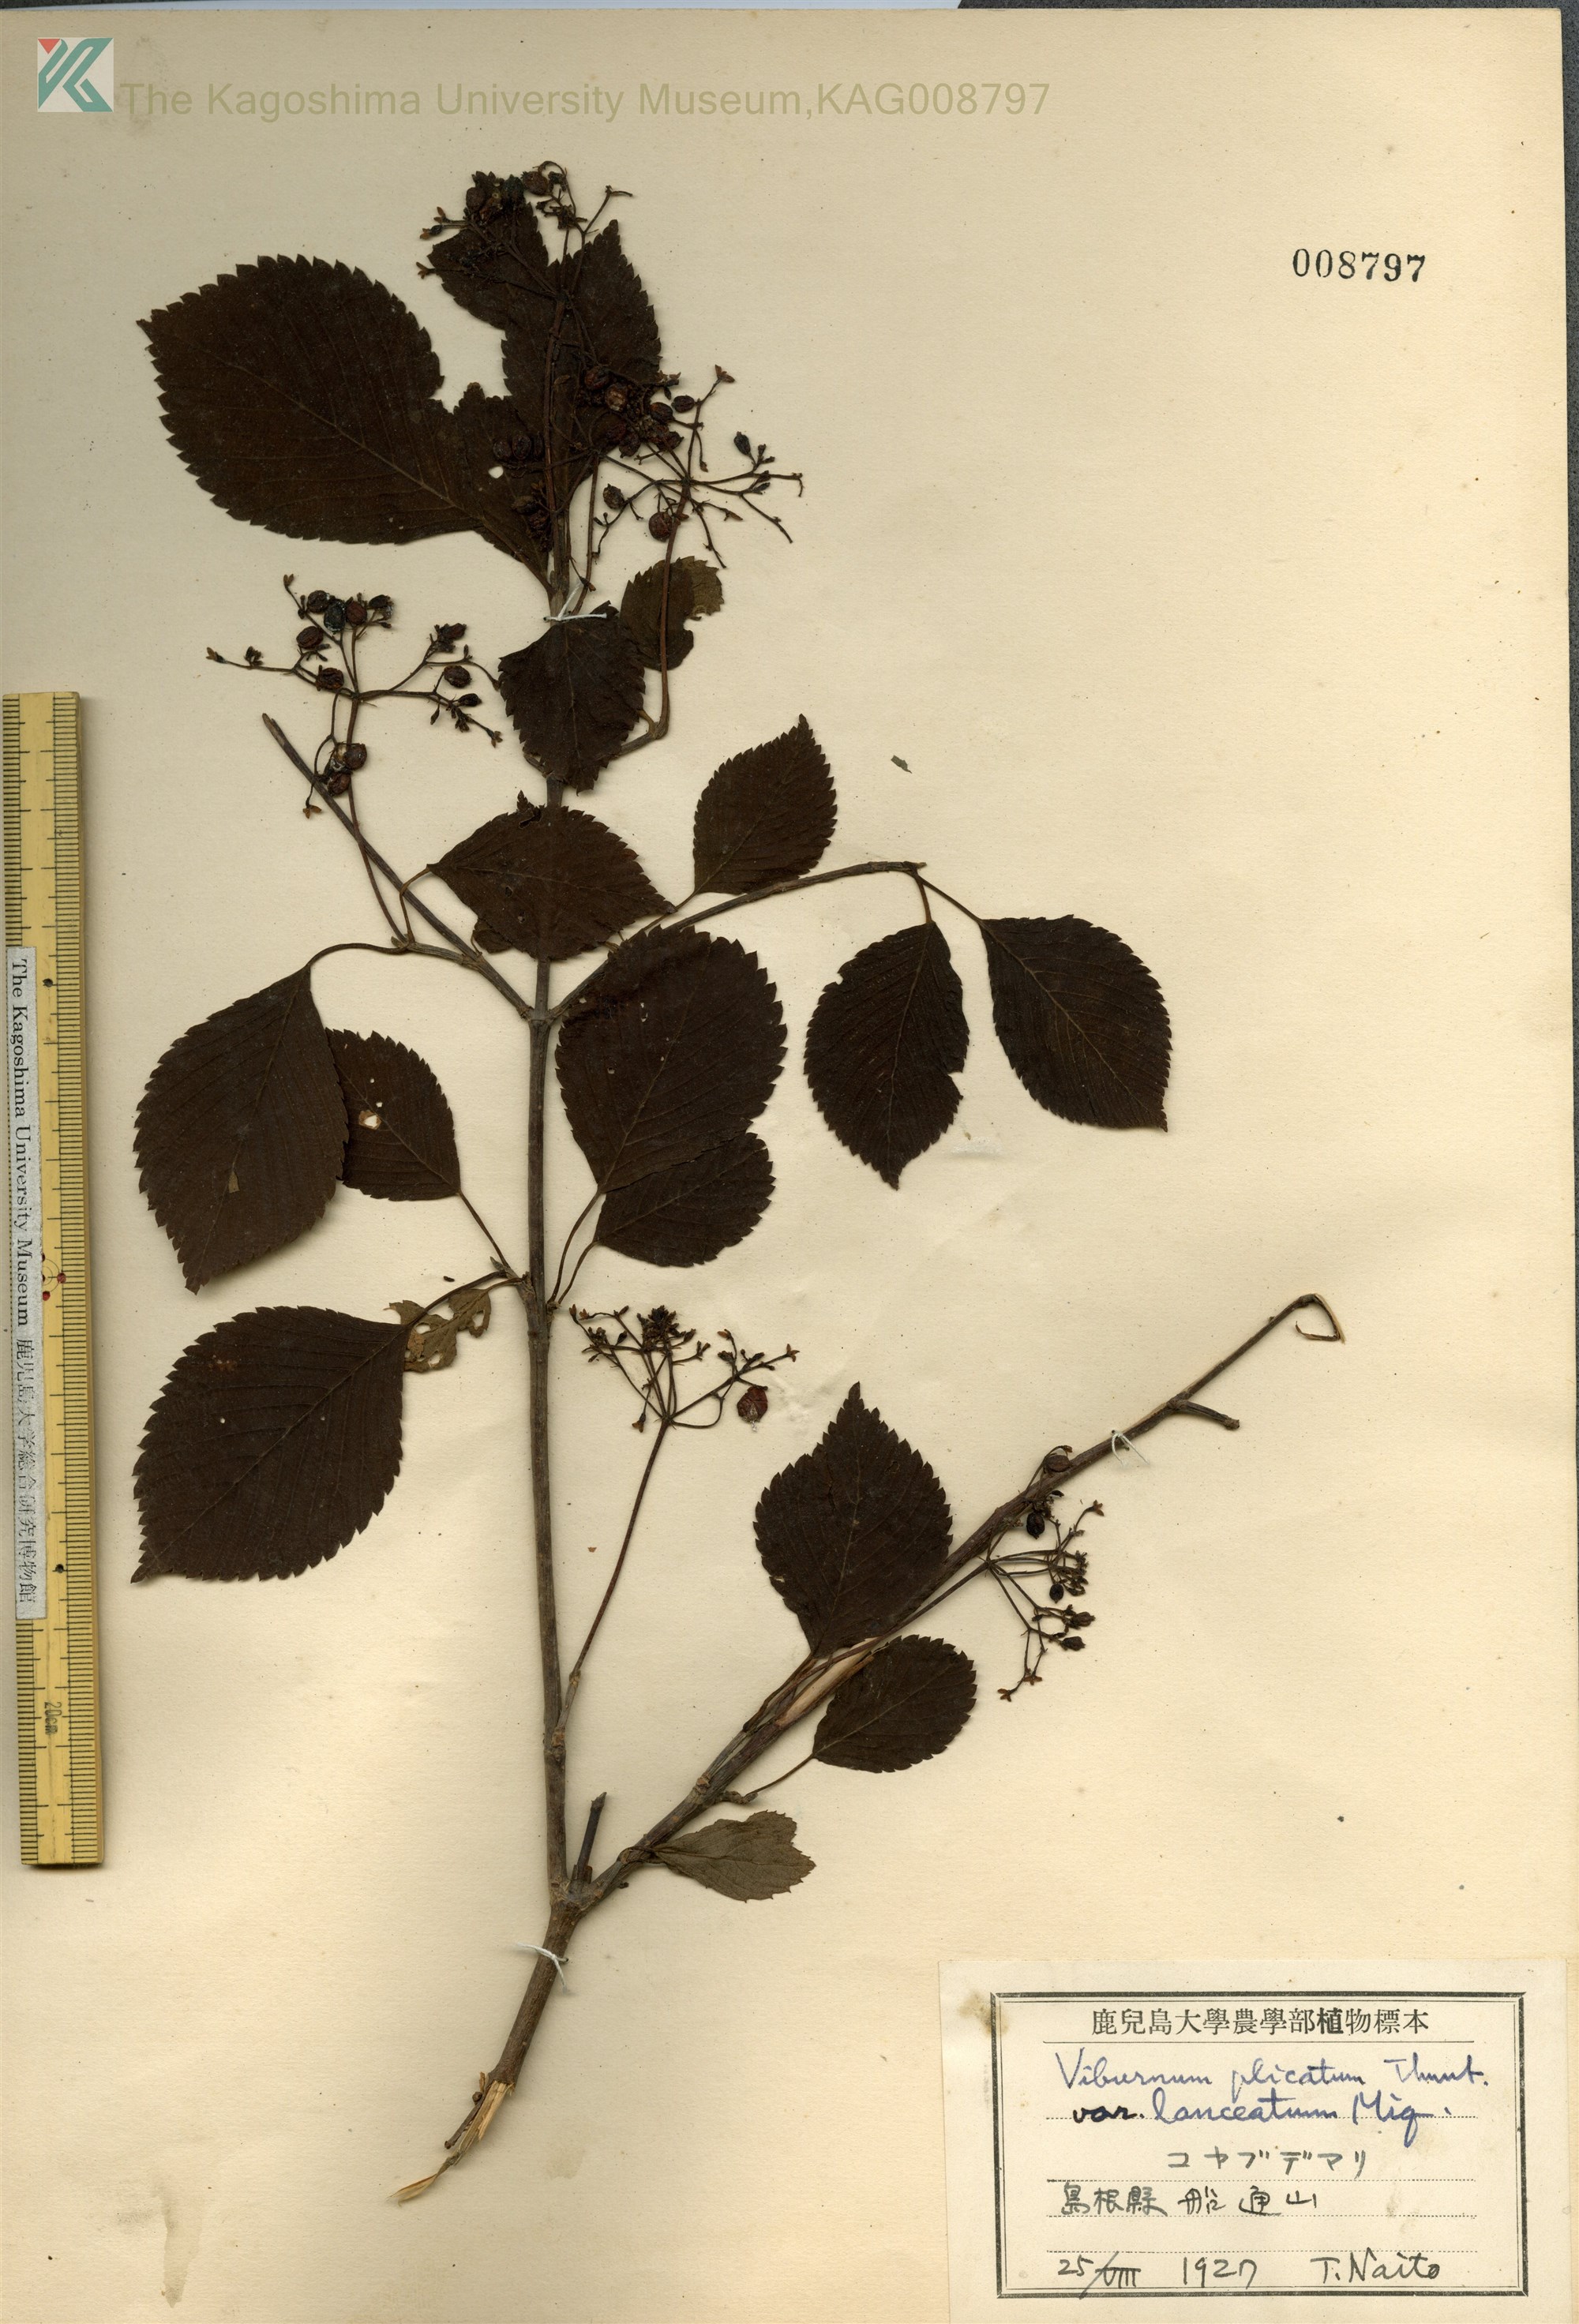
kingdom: Plantae
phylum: Tracheophyta
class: Magnoliopsida
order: Dipsacales
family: Viburnaceae
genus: Viburnum
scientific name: Viburnum plicatum
